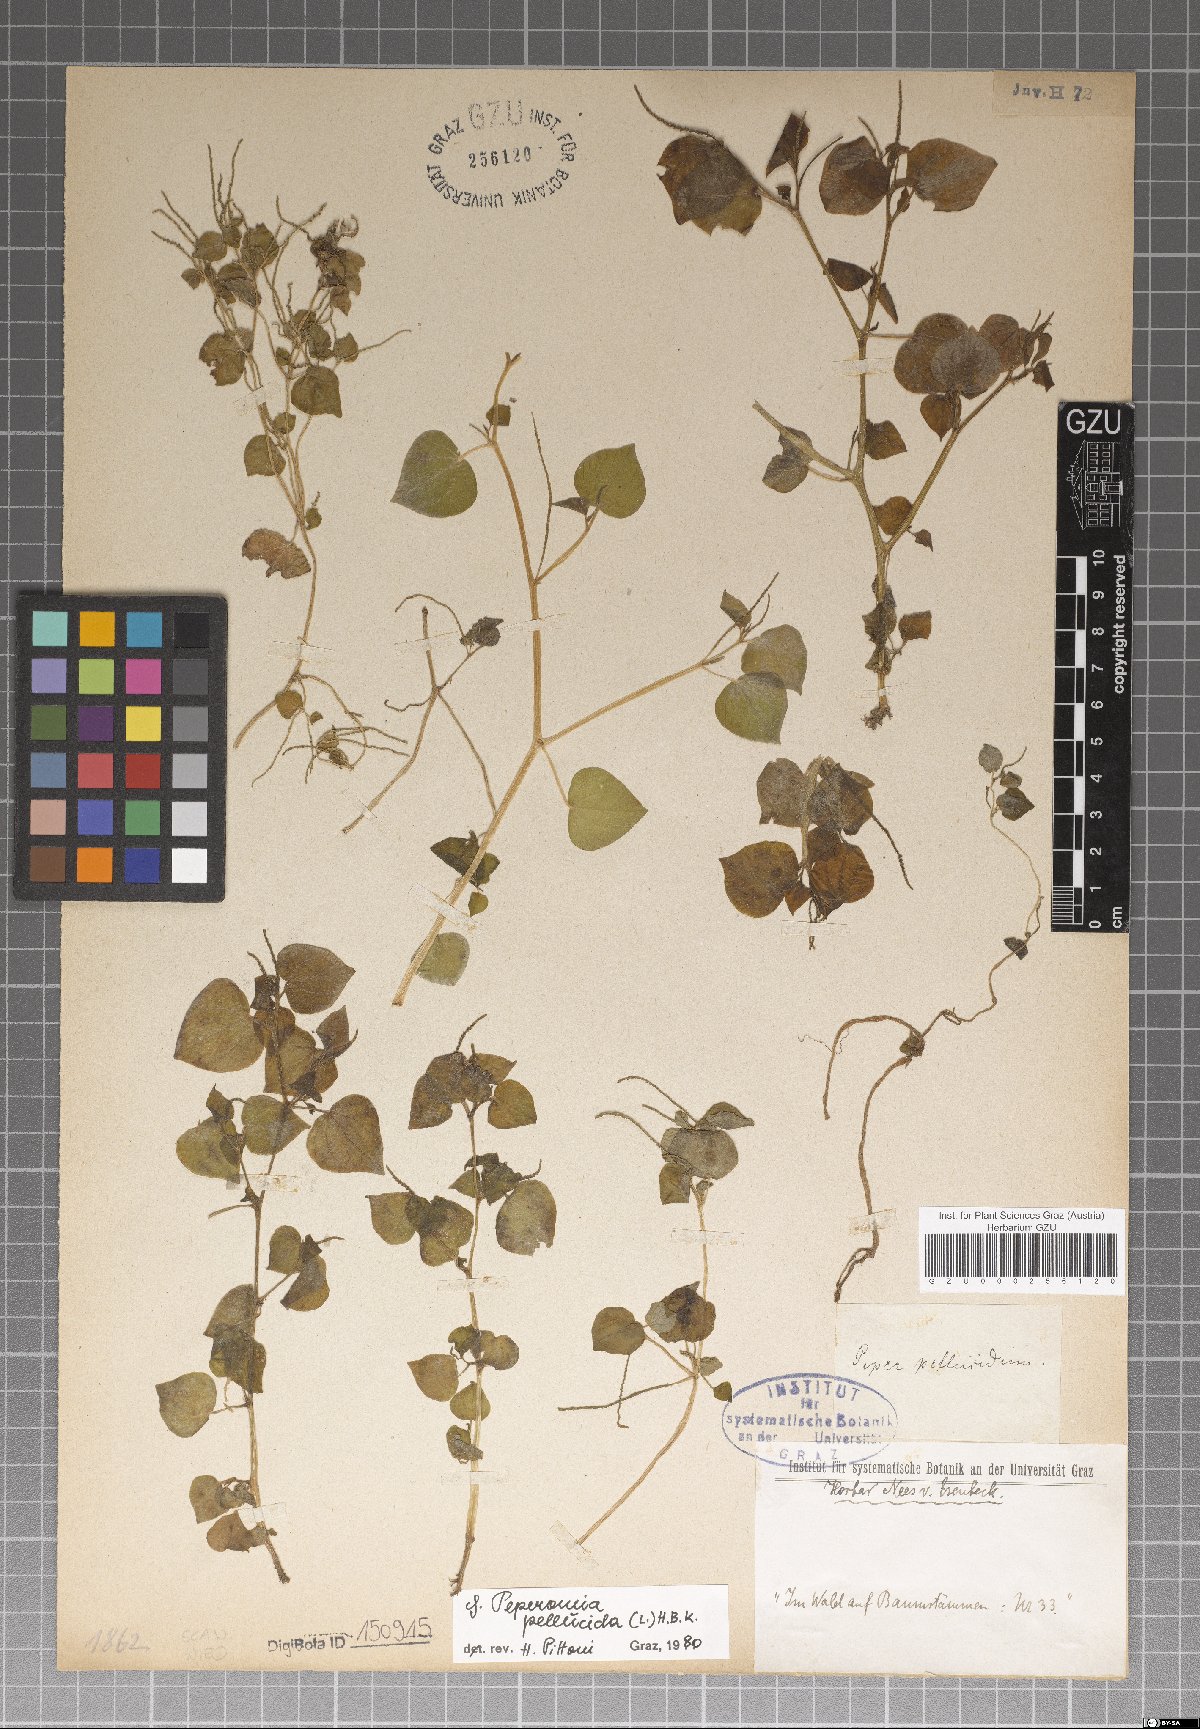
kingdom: Plantae
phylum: Tracheophyta
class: Magnoliopsida
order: Piperales
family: Piperaceae
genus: Peperomia
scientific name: Peperomia pellucida
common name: Man to man
